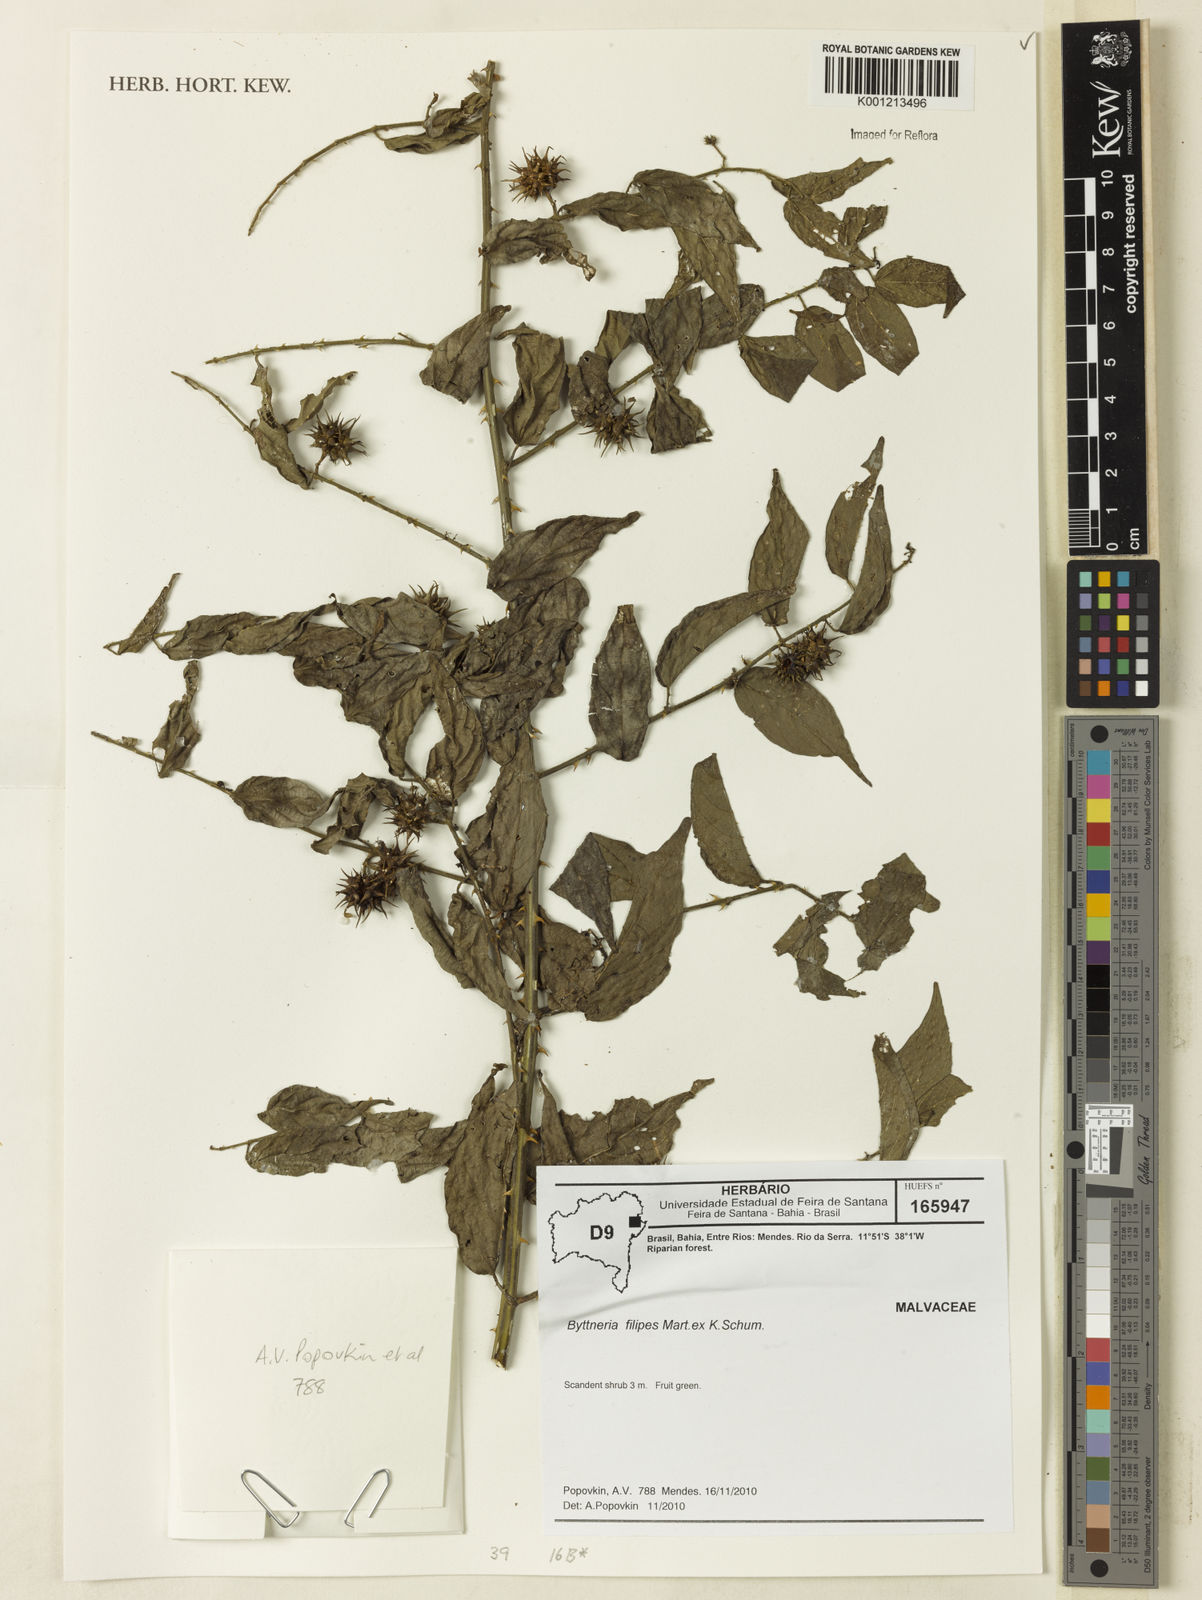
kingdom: Plantae
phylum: Tracheophyta
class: Magnoliopsida
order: Malvales
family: Malvaceae
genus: Byttneria
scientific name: Byttneria filipes
